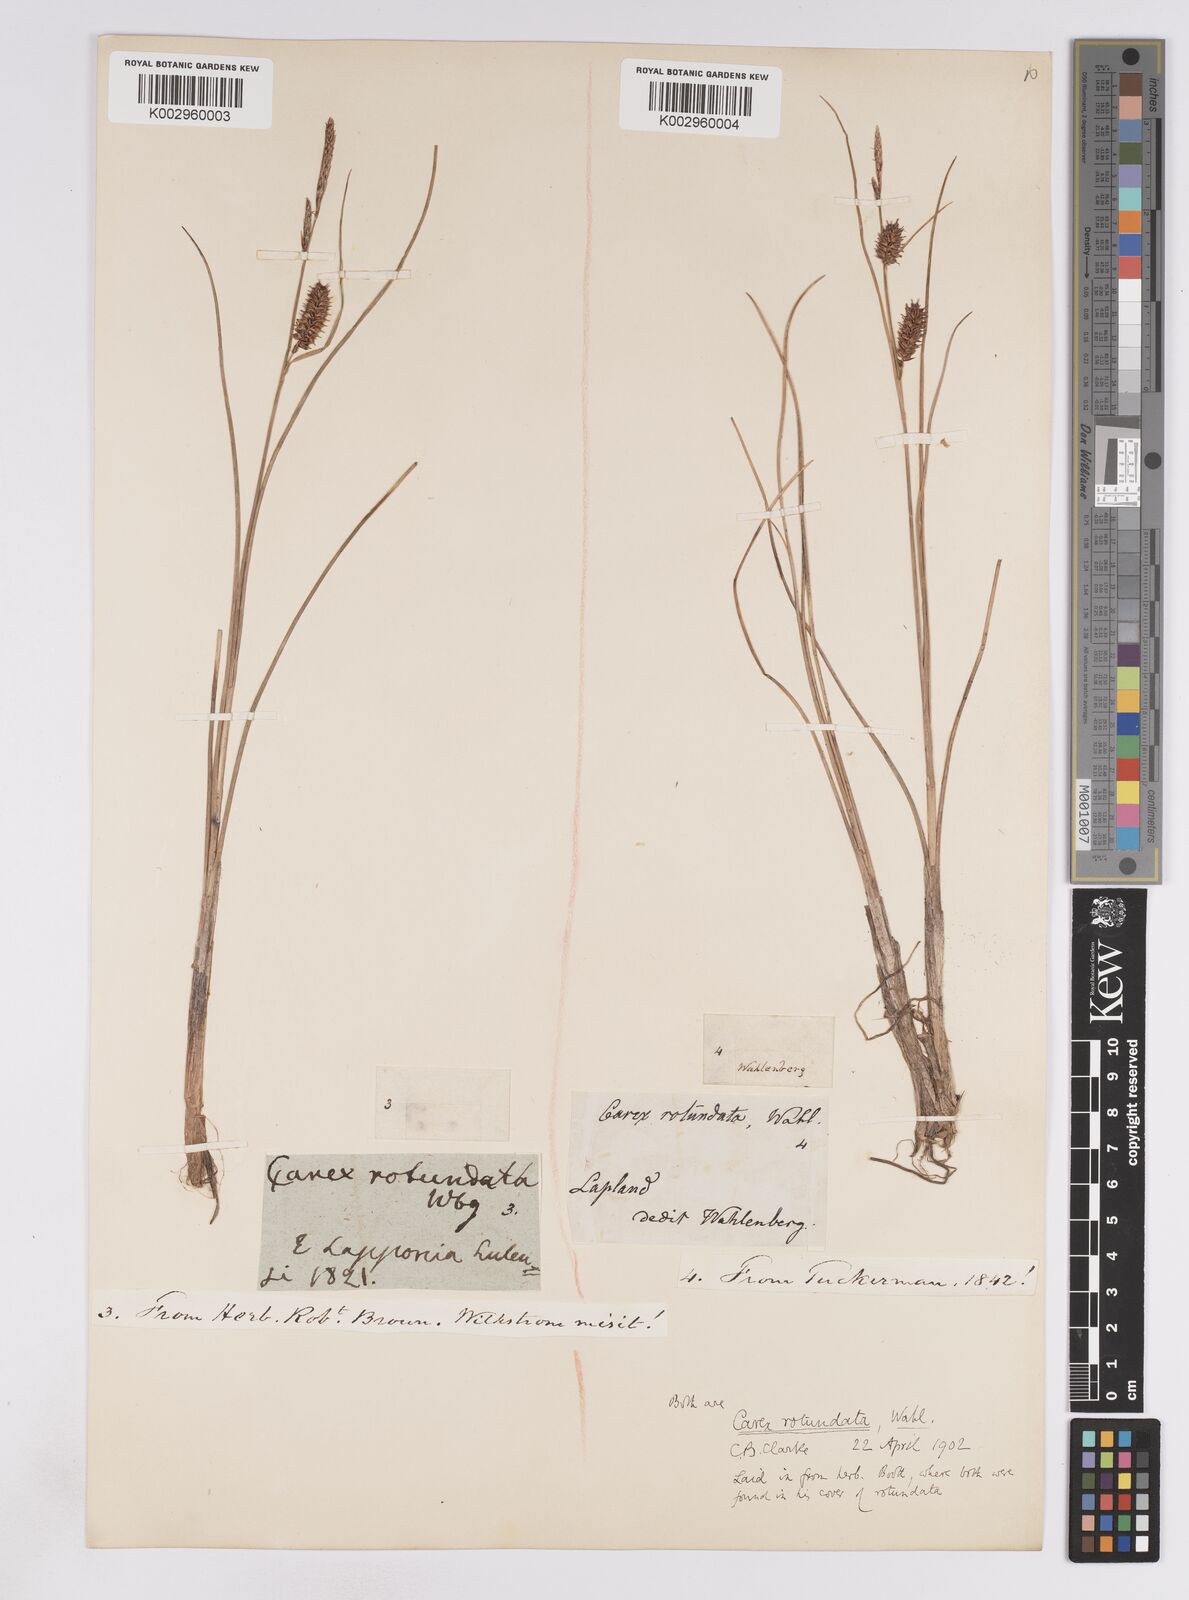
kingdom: Plantae
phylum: Tracheophyta
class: Liliopsida
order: Poales
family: Cyperaceae
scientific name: Cyperaceae
